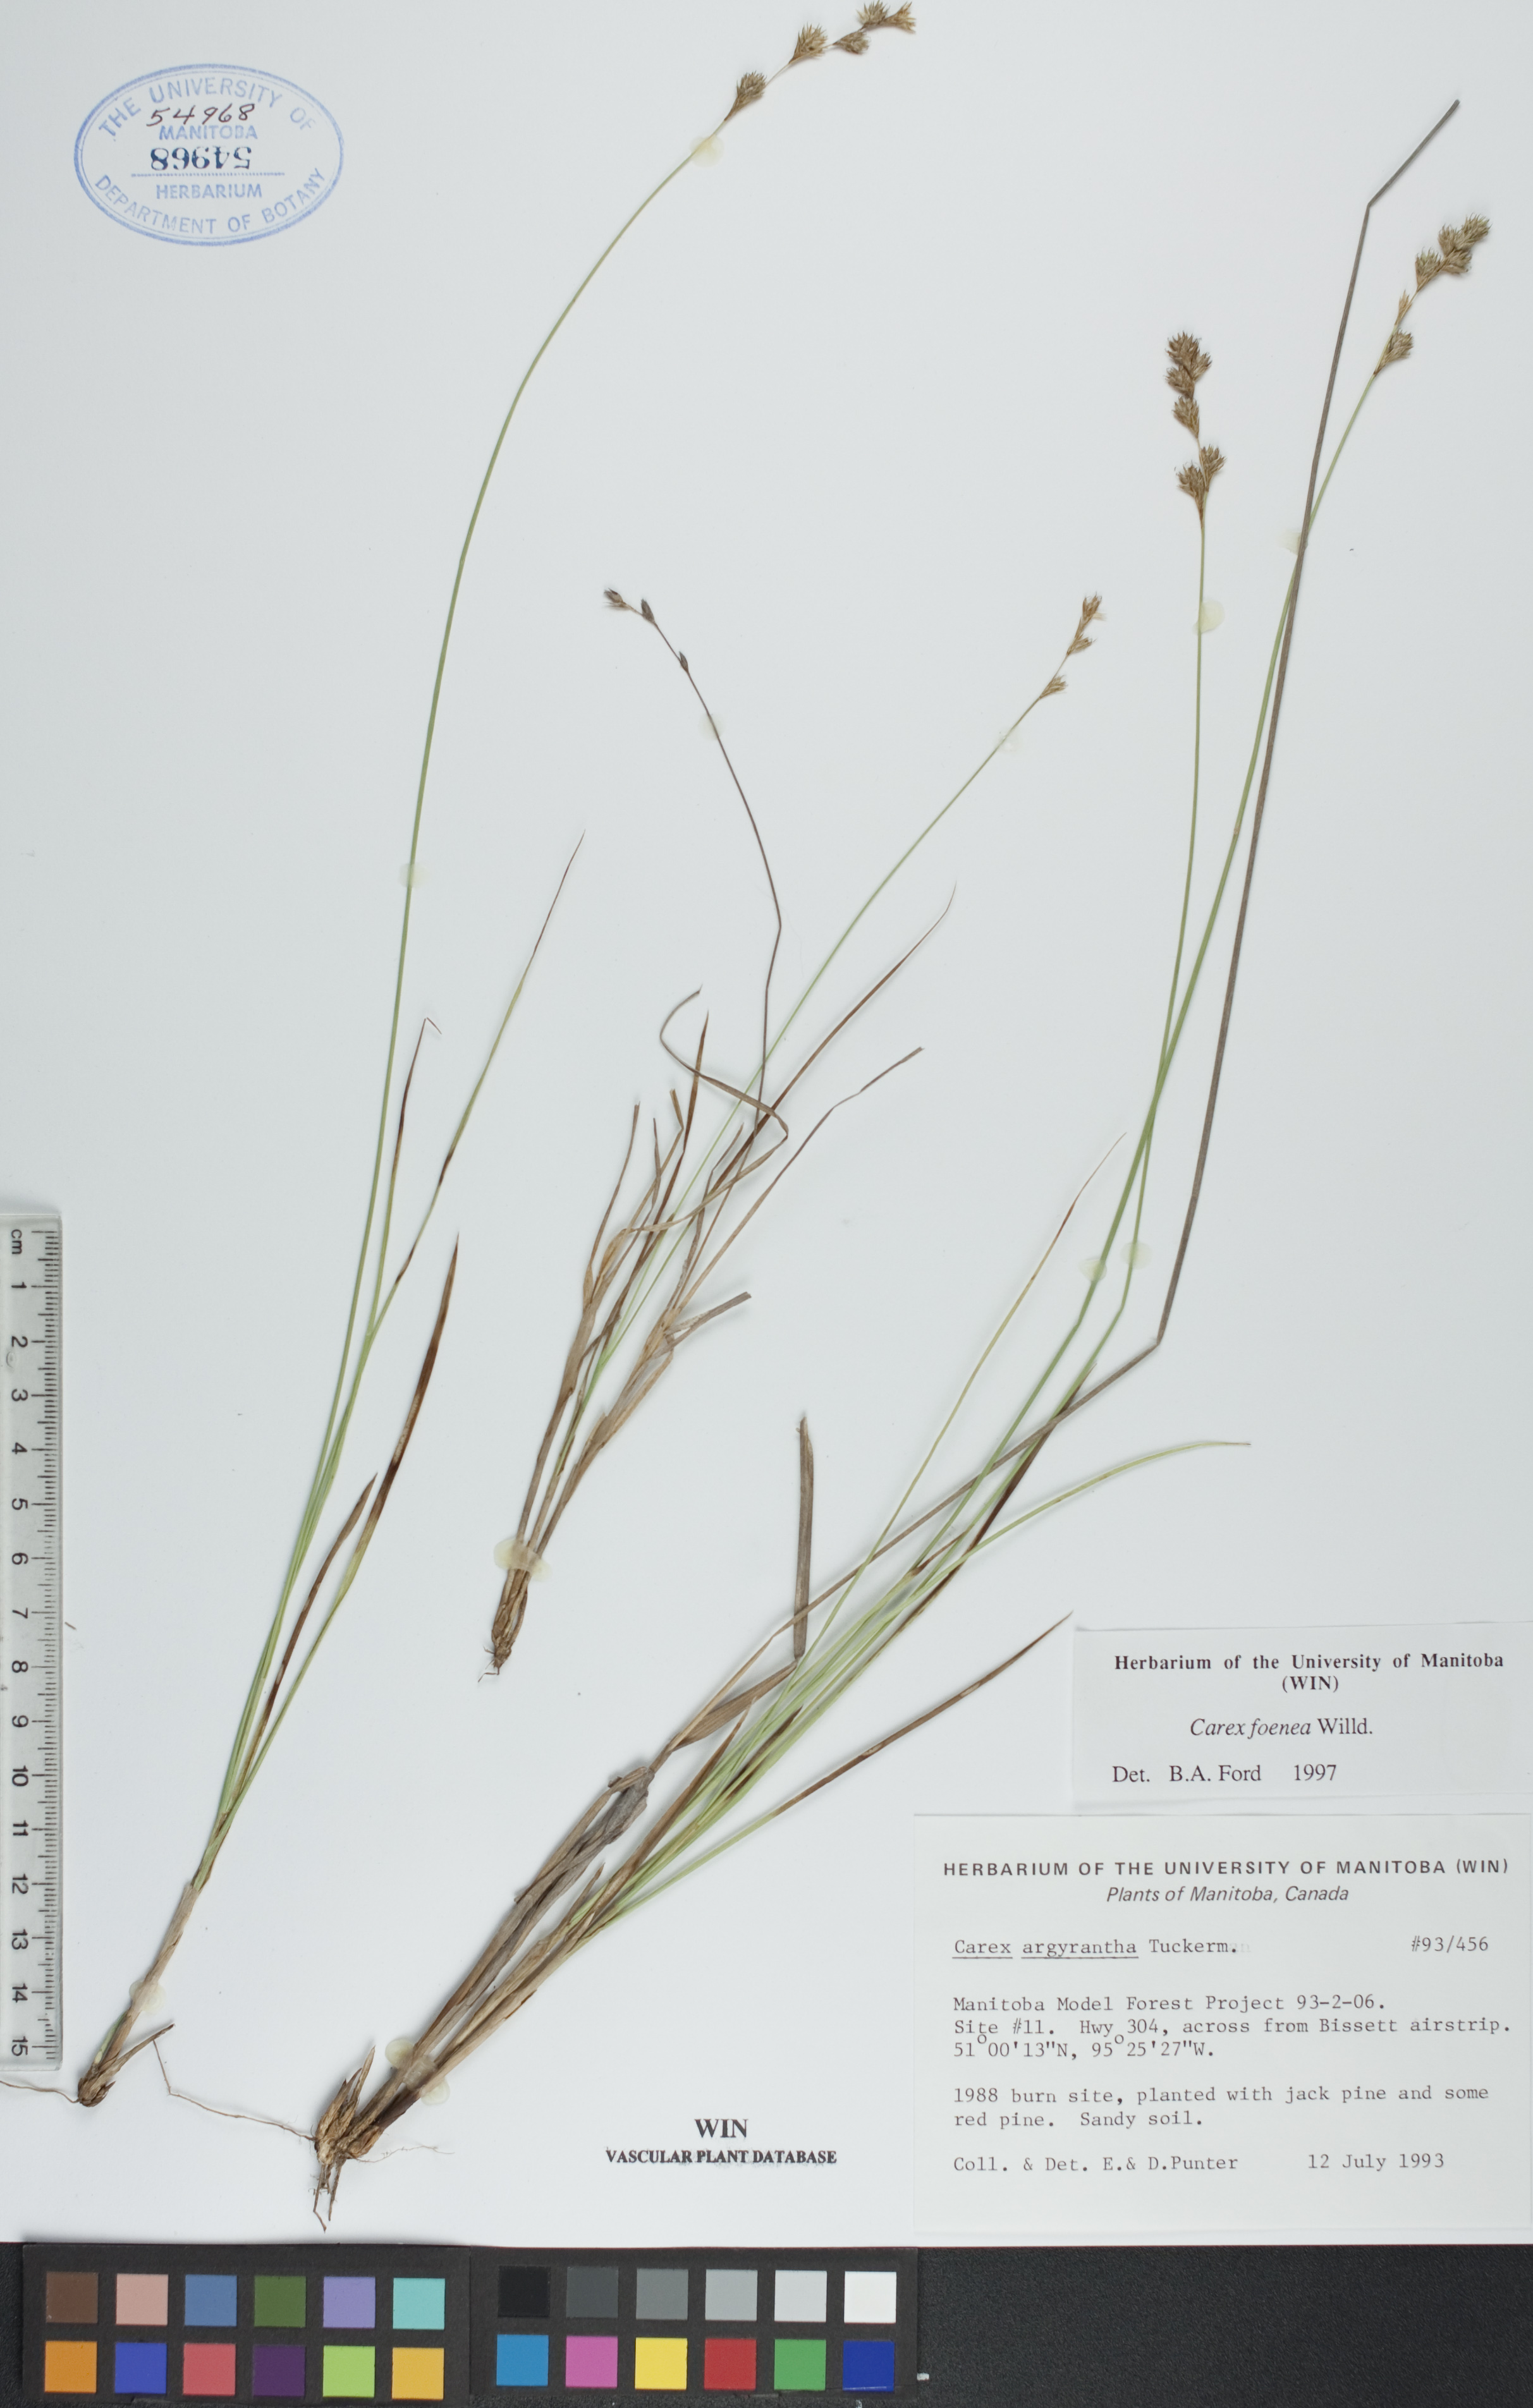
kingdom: Plantae
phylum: Tracheophyta
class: Liliopsida
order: Poales
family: Cyperaceae
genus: Carex
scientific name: Carex foenea
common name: Bronze sedge
